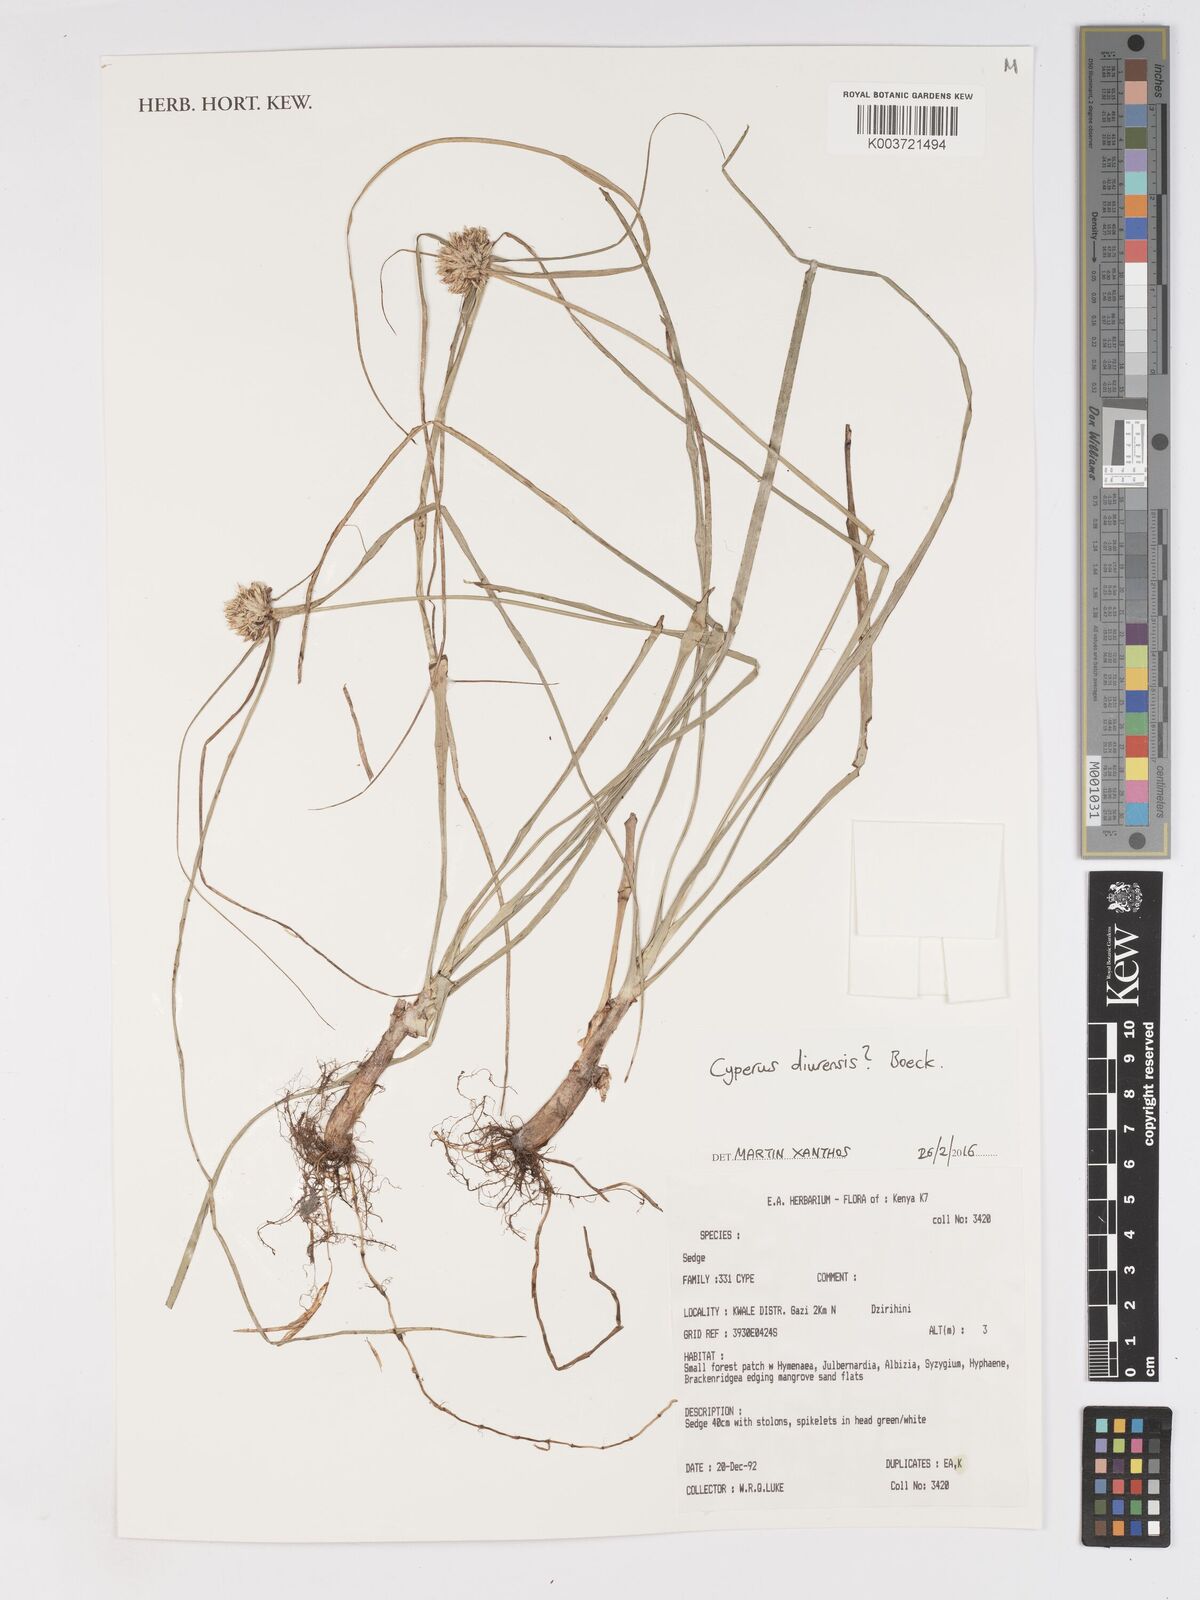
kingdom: Plantae
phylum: Tracheophyta
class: Liliopsida
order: Poales
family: Cyperaceae
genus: Cyperus
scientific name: Cyperus diurensis
